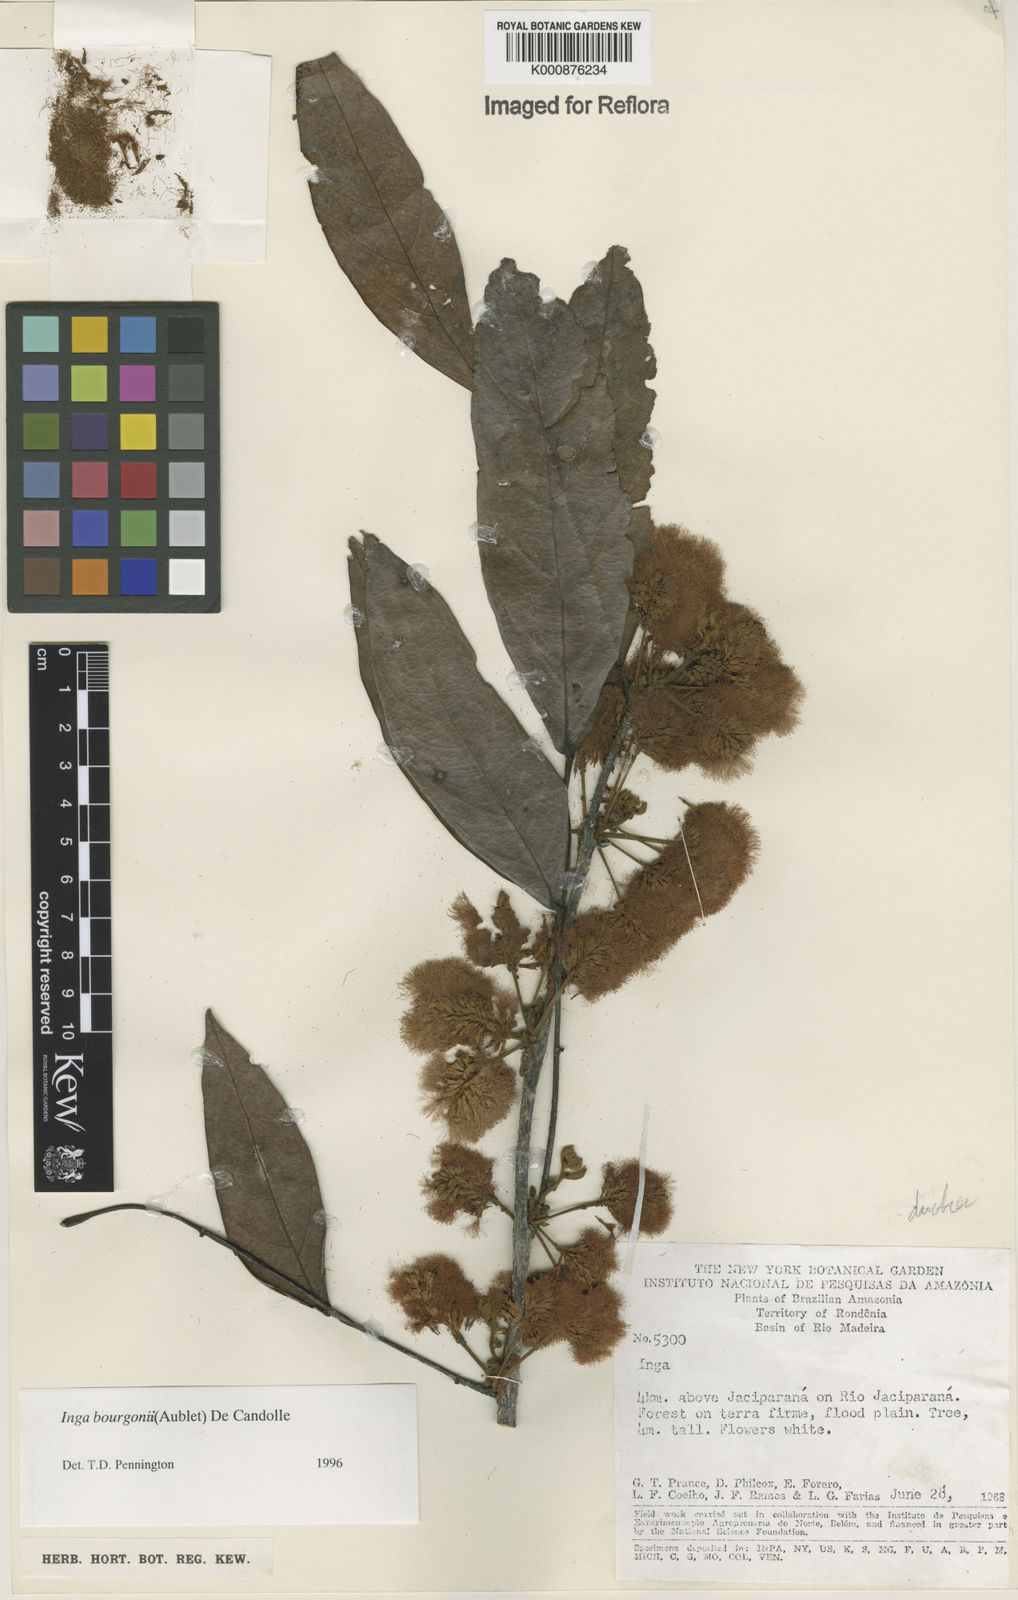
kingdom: Plantae
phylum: Tracheophyta
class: Magnoliopsida
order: Fabales
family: Fabaceae
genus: Inga
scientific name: Inga bourgoni
